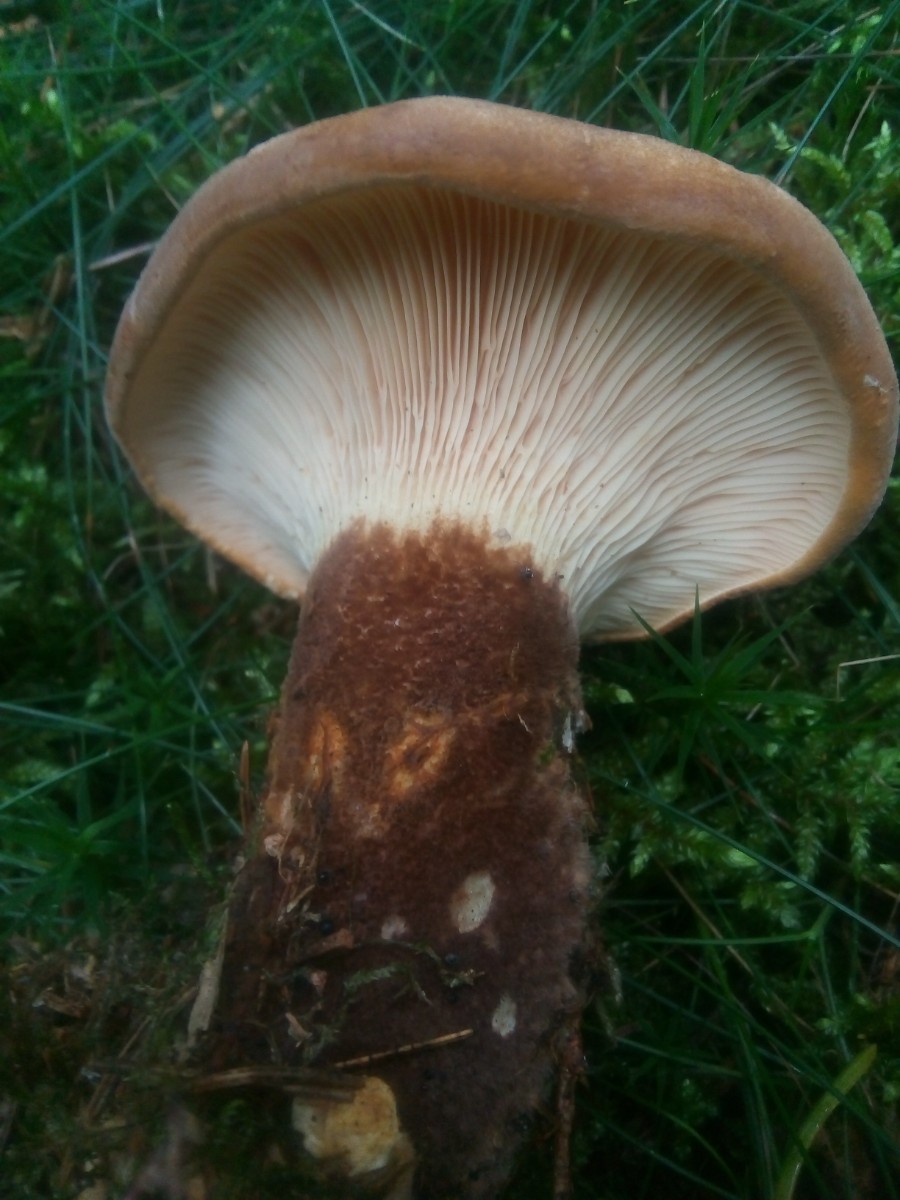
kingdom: Fungi
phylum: Basidiomycota
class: Agaricomycetes
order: Boletales
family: Tapinellaceae
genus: Tapinella
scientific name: Tapinella atrotomentosa
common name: sortfiltet viftesvamp
